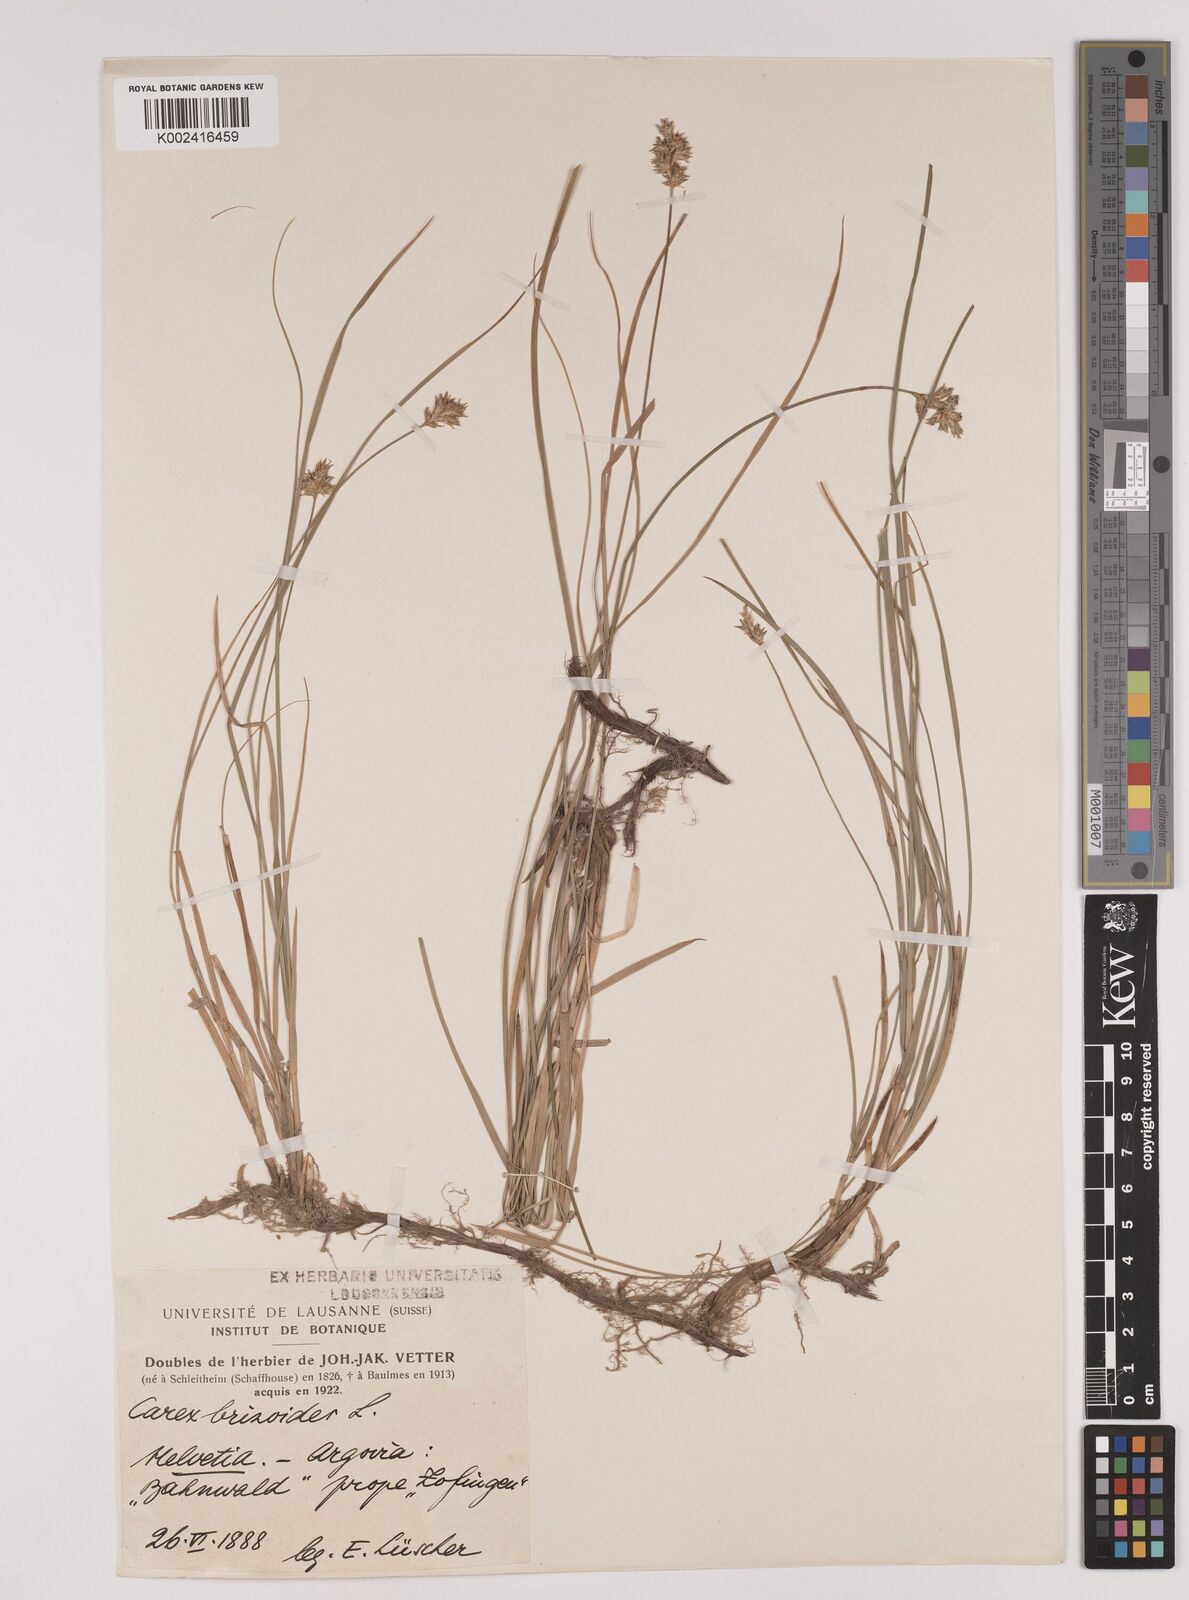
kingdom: Plantae
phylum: Tracheophyta
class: Liliopsida
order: Poales
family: Cyperaceae
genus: Carex
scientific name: Carex brizoides
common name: Quaking-grass sedge
